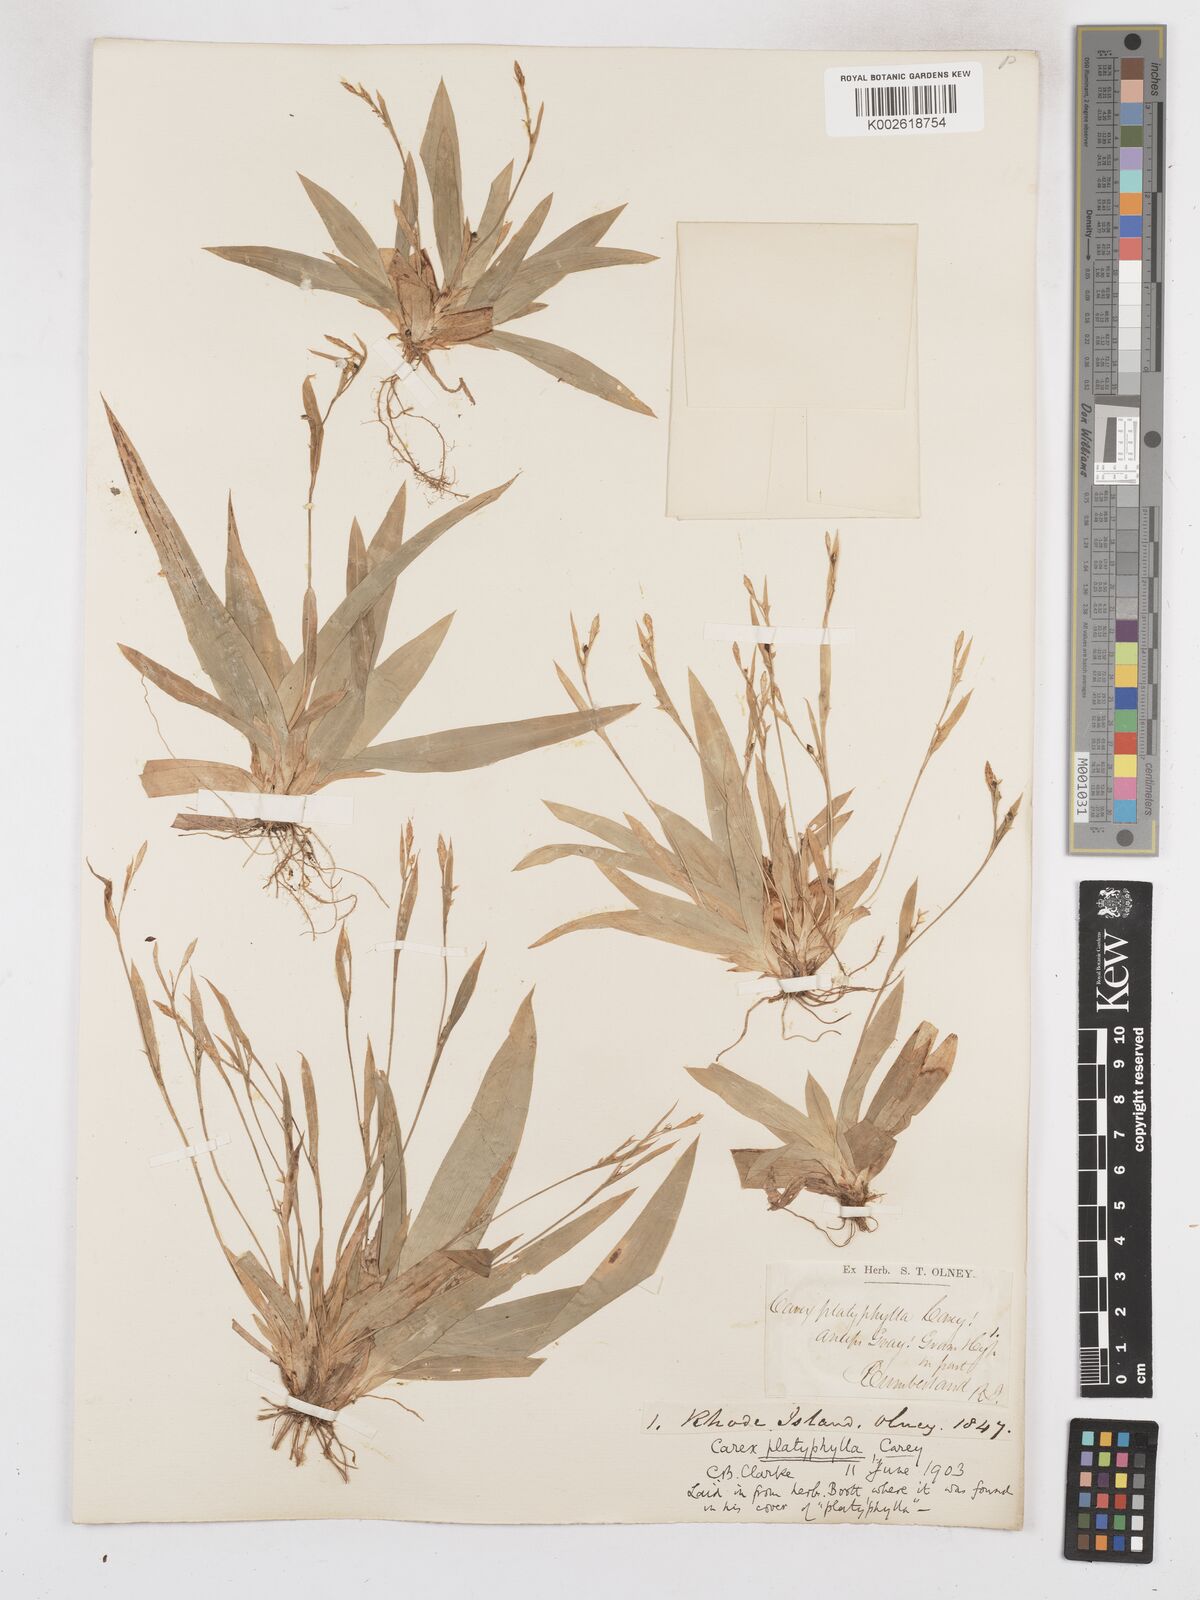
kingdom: Plantae
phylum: Tracheophyta
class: Liliopsida
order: Poales
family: Cyperaceae
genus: Carex
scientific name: Carex platyphylla
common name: Broad-leaved sedge
